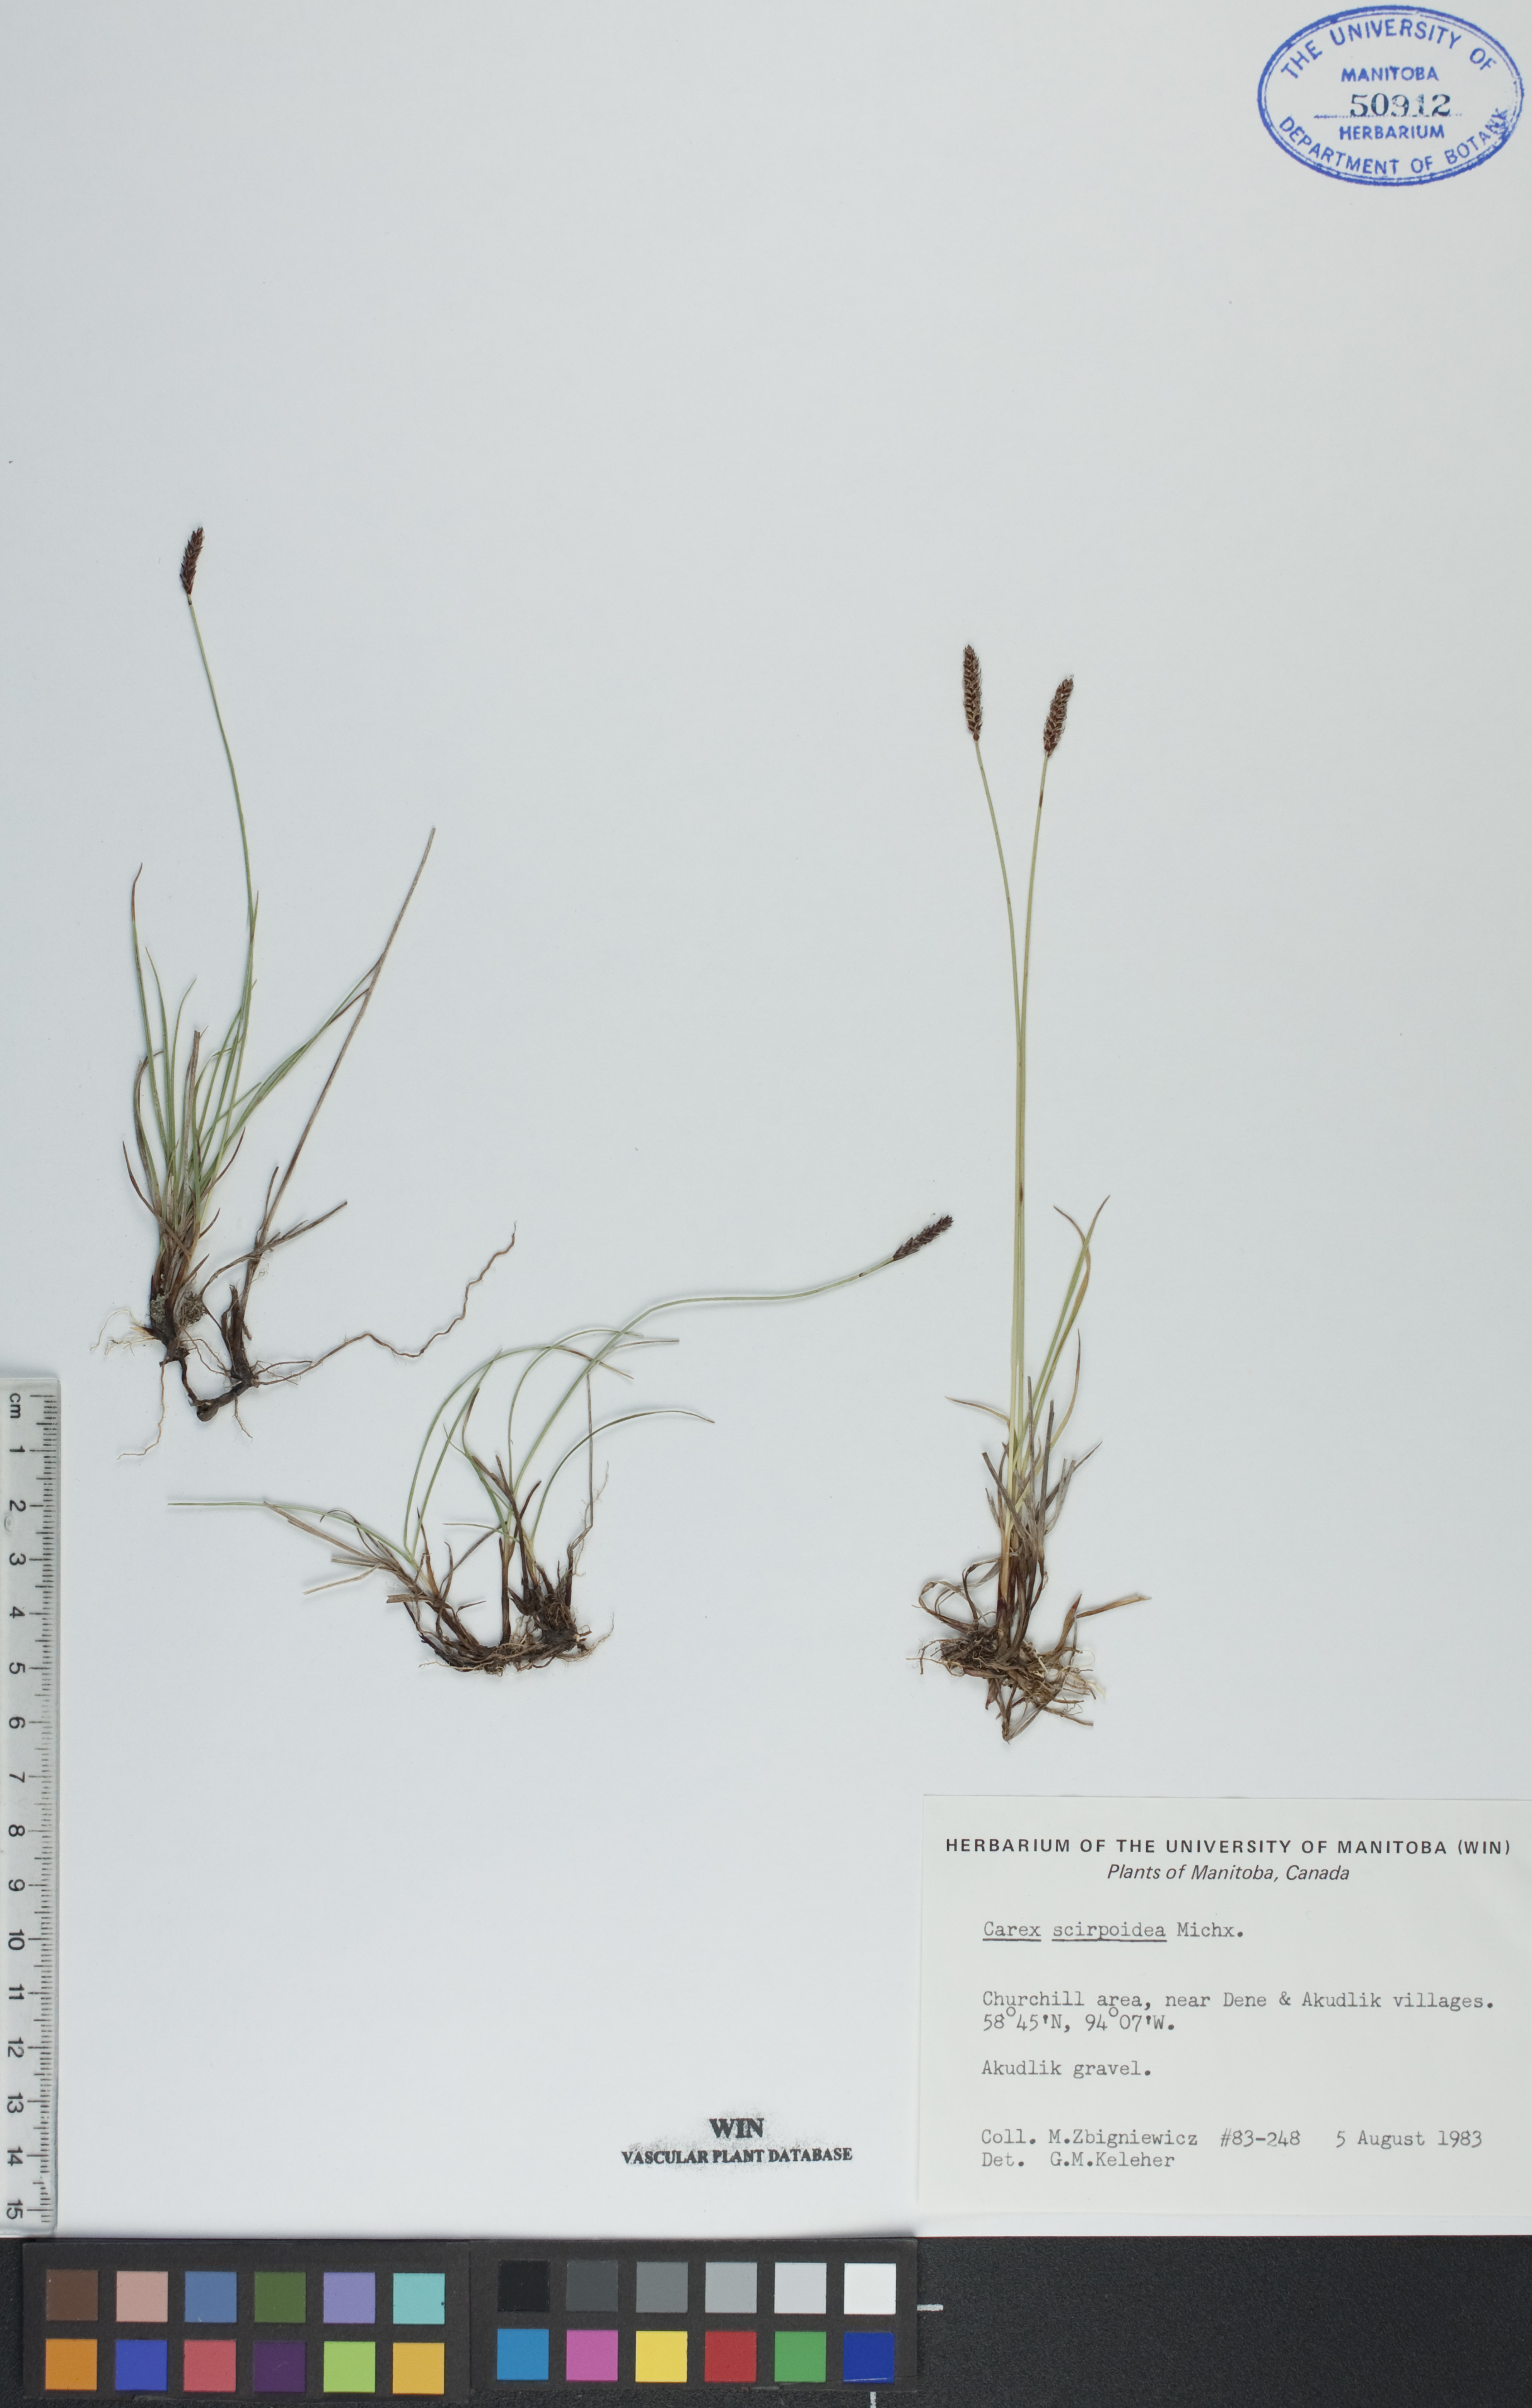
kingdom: Plantae
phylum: Tracheophyta
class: Liliopsida
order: Poales
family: Cyperaceae
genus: Carex
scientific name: Carex scirpoidea
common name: Canada single-spike sedge
